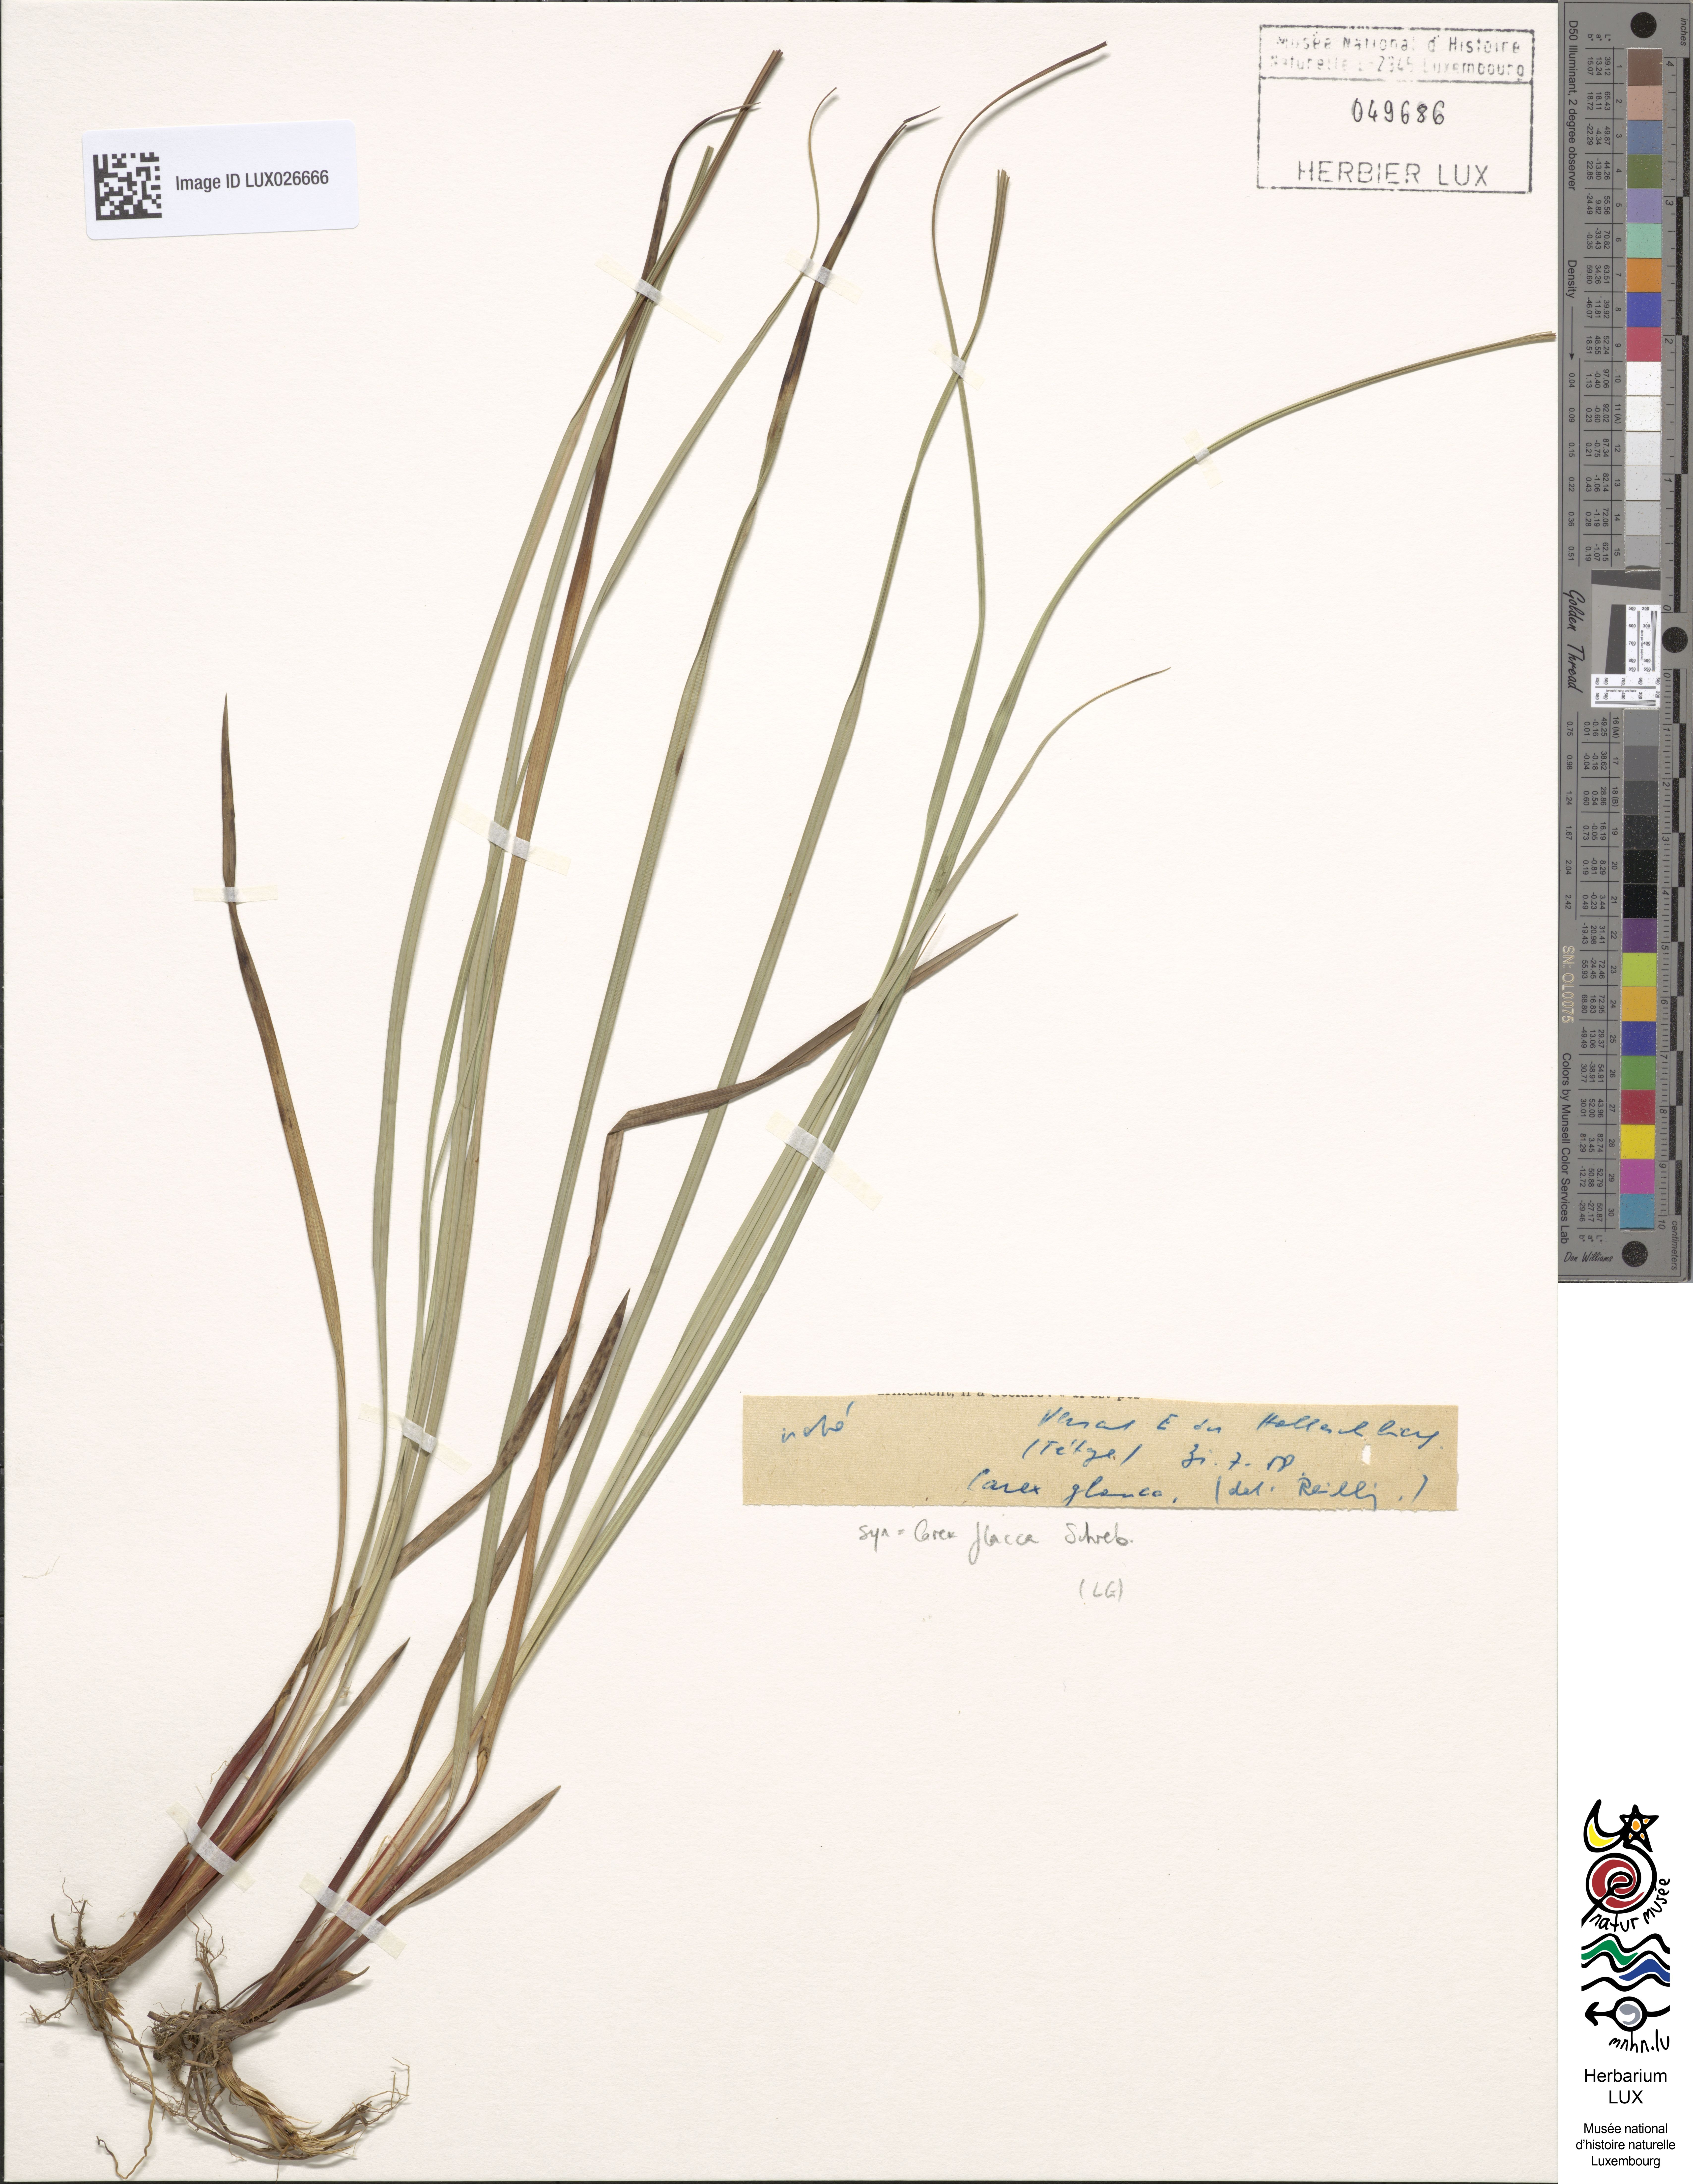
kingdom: Plantae
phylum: Tracheophyta
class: Liliopsida
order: Poales
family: Cyperaceae
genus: Carex
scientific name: Carex flacca
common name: Glaucous sedge
